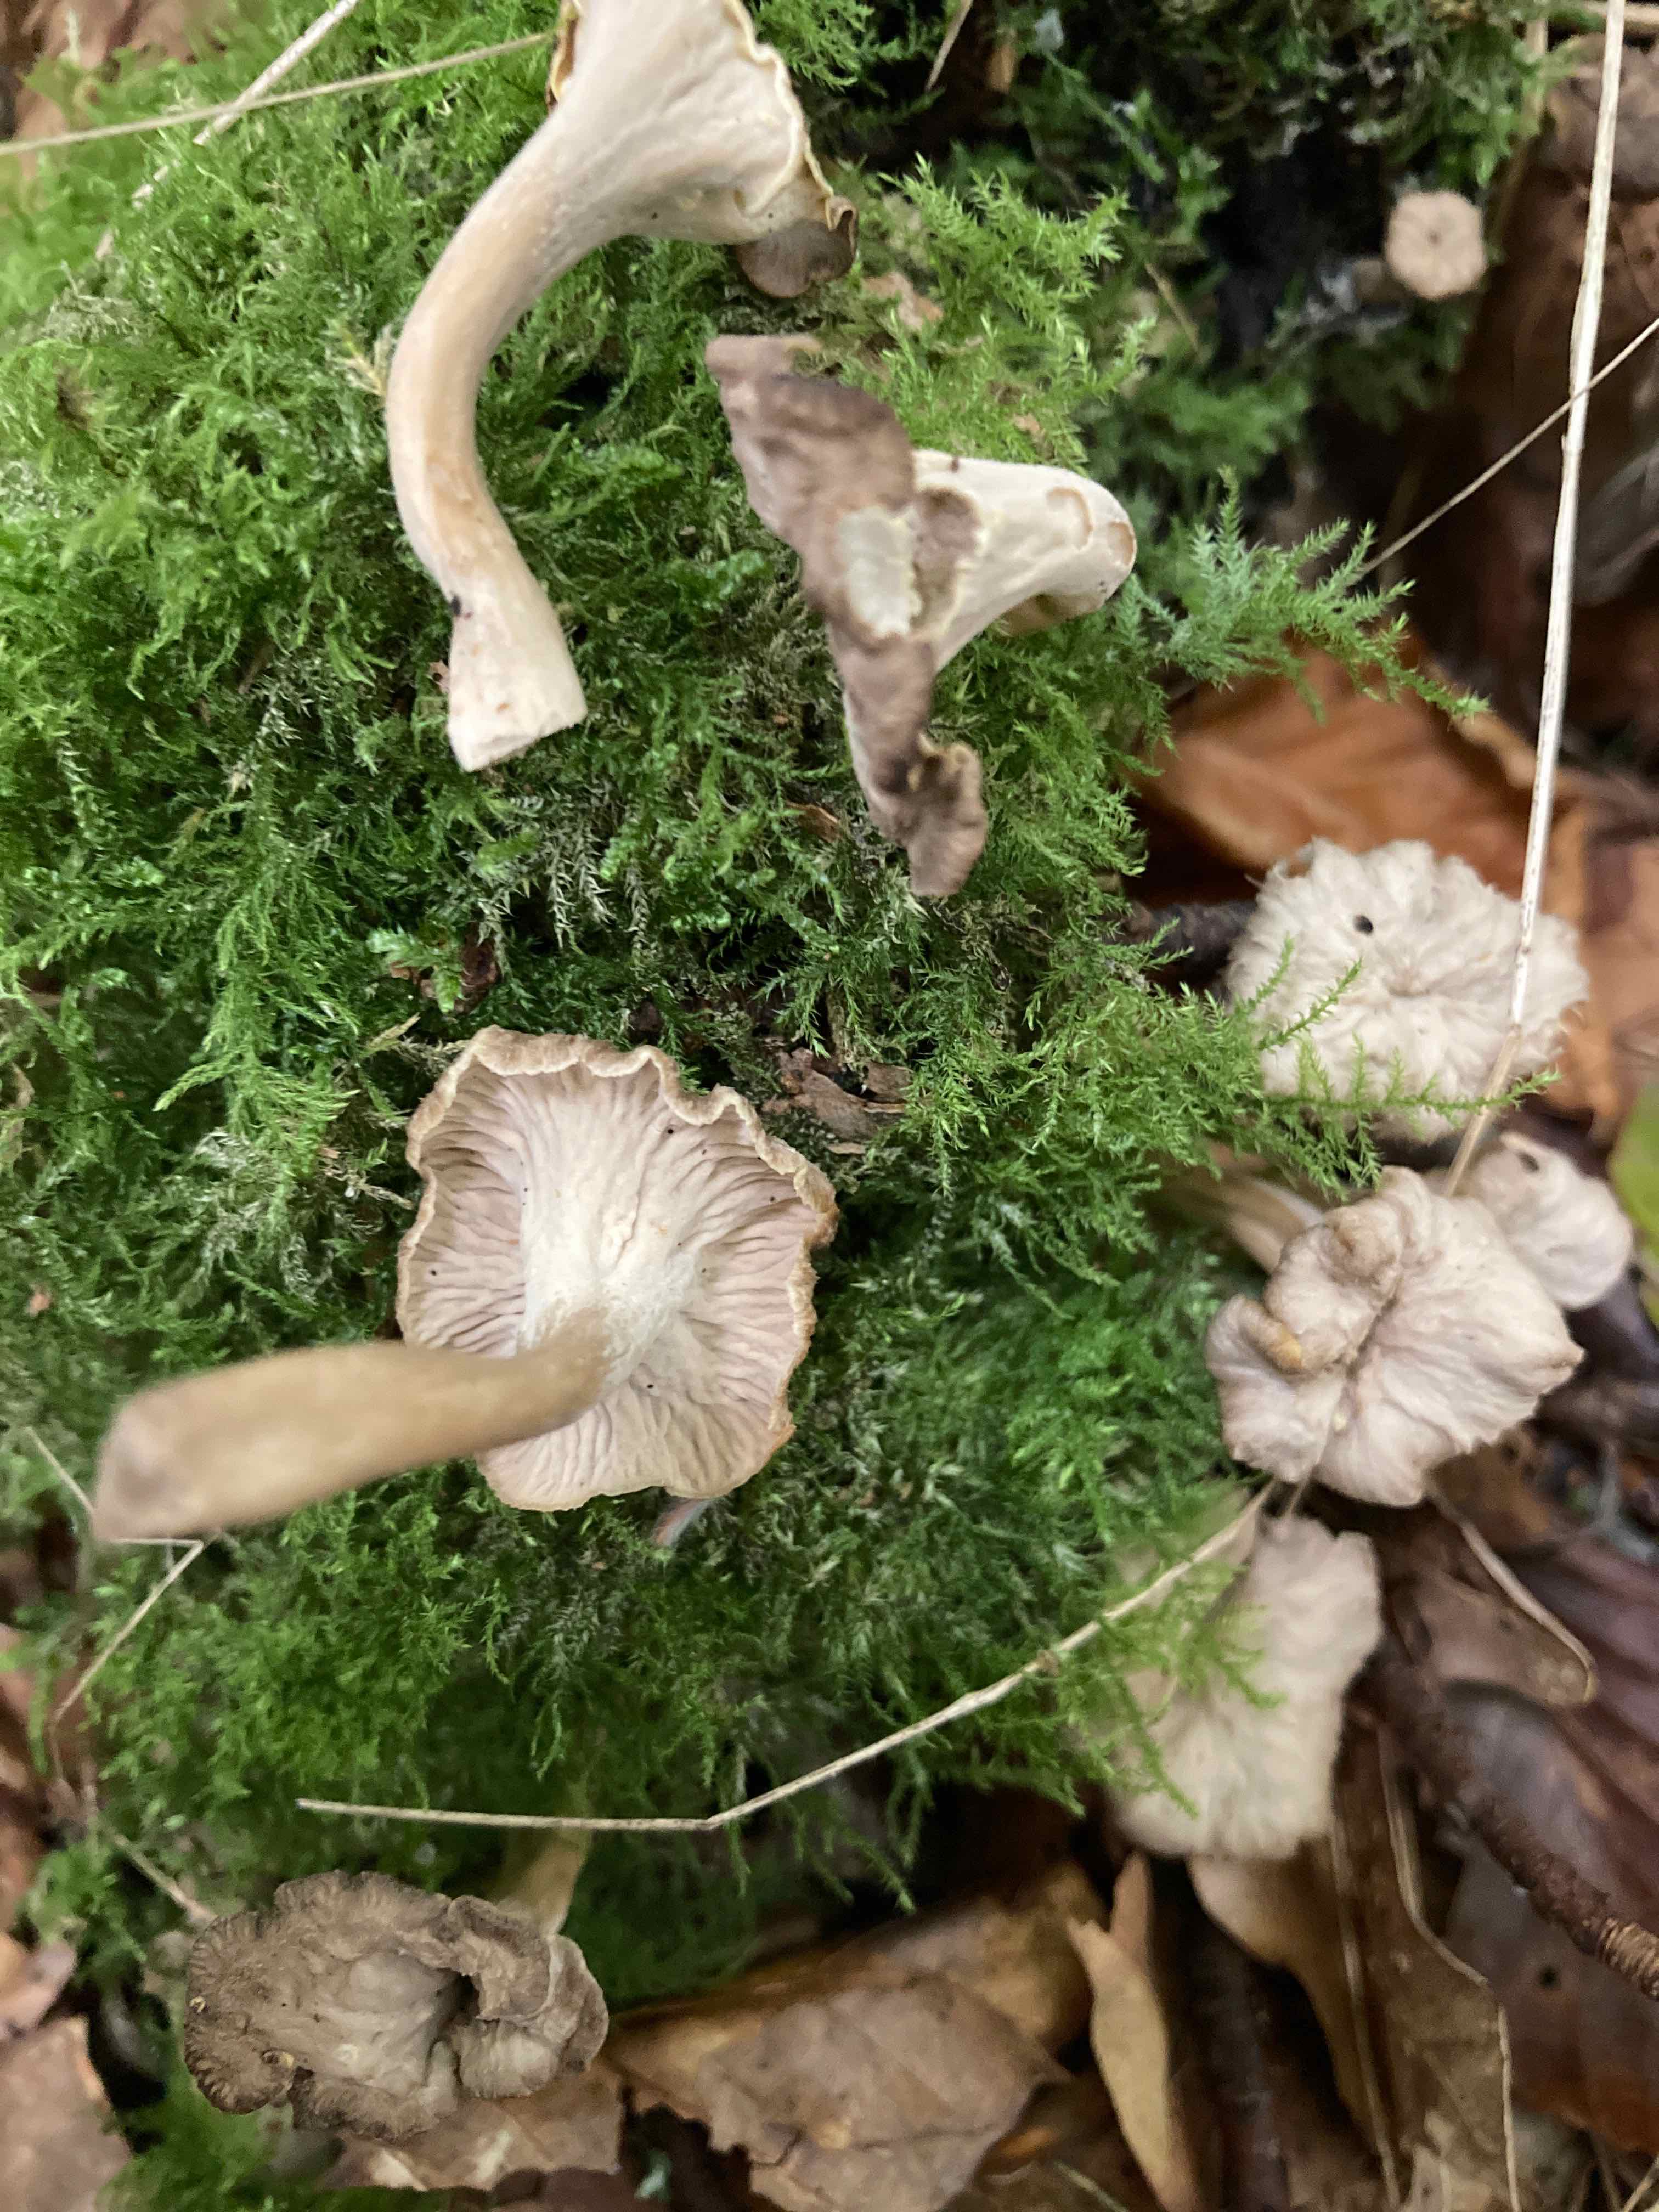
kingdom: Fungi
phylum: Basidiomycota
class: Agaricomycetes
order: Cantharellales
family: Hydnaceae
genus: Craterellus
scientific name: Craterellus undulatus
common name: liden kantarel
